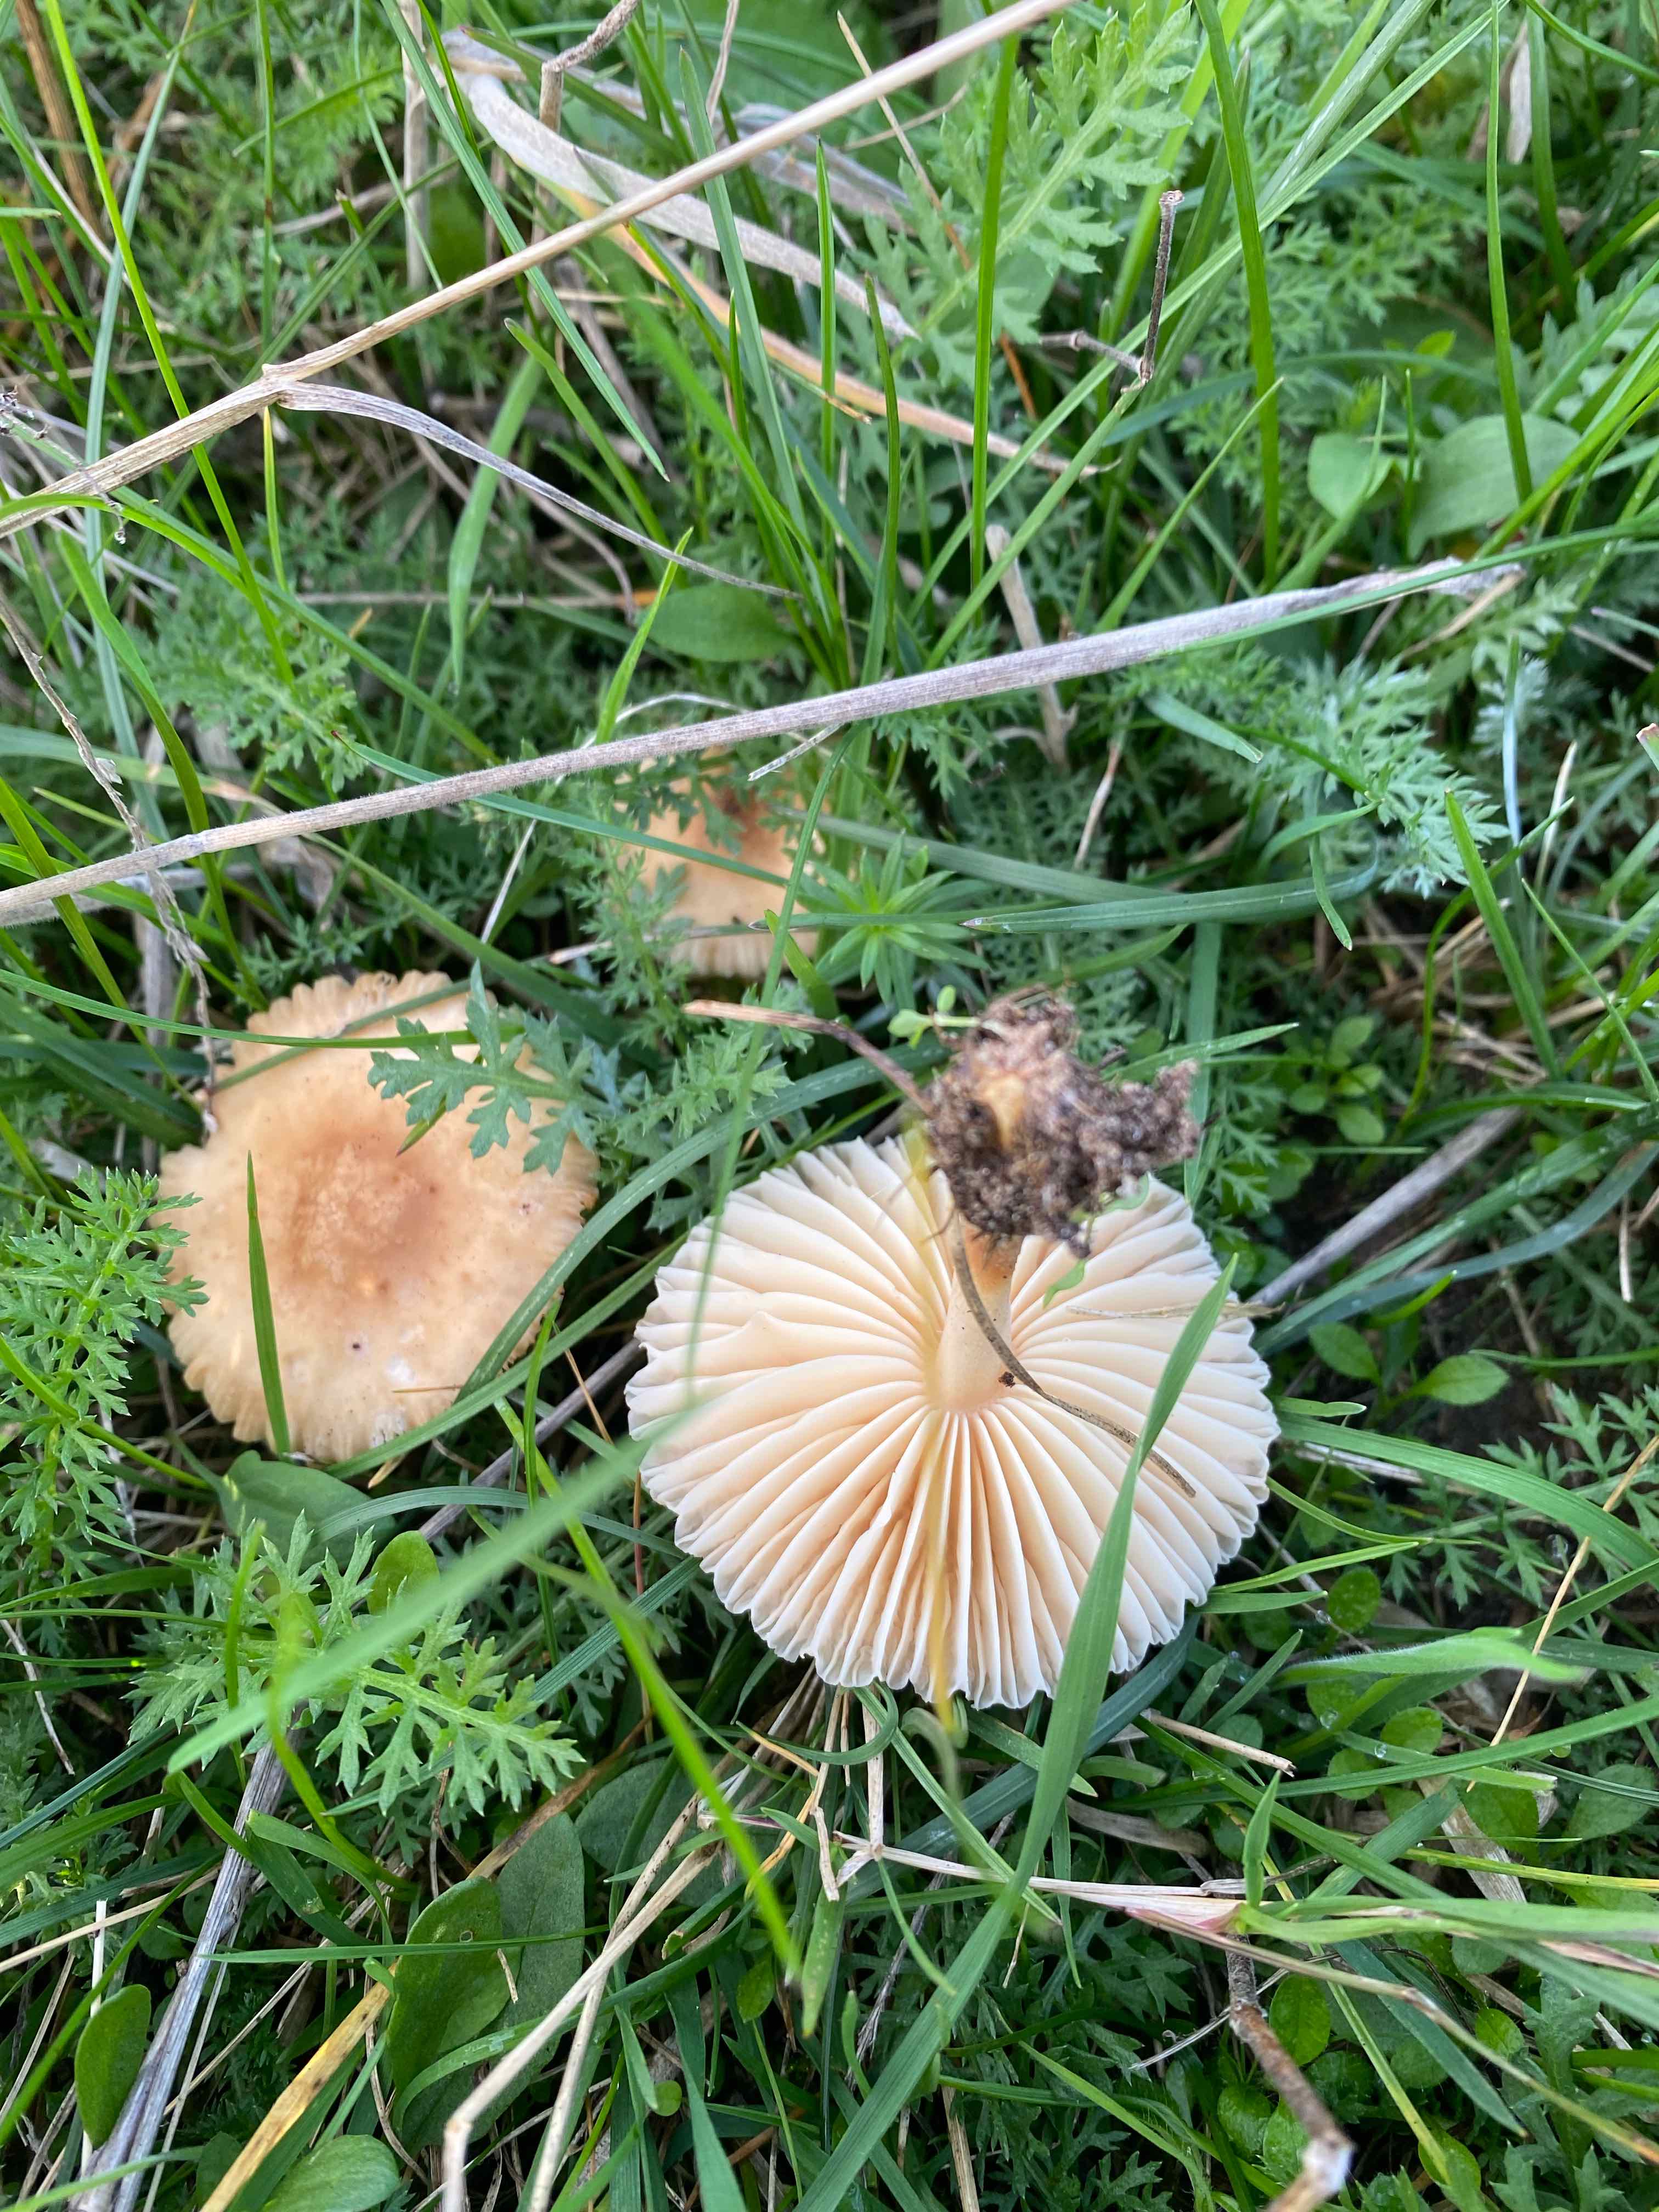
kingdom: Fungi
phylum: Basidiomycota
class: Agaricomycetes
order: Agaricales
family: Marasmiaceae
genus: Marasmius
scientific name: Marasmius oreades
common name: elledans-bruskhat
